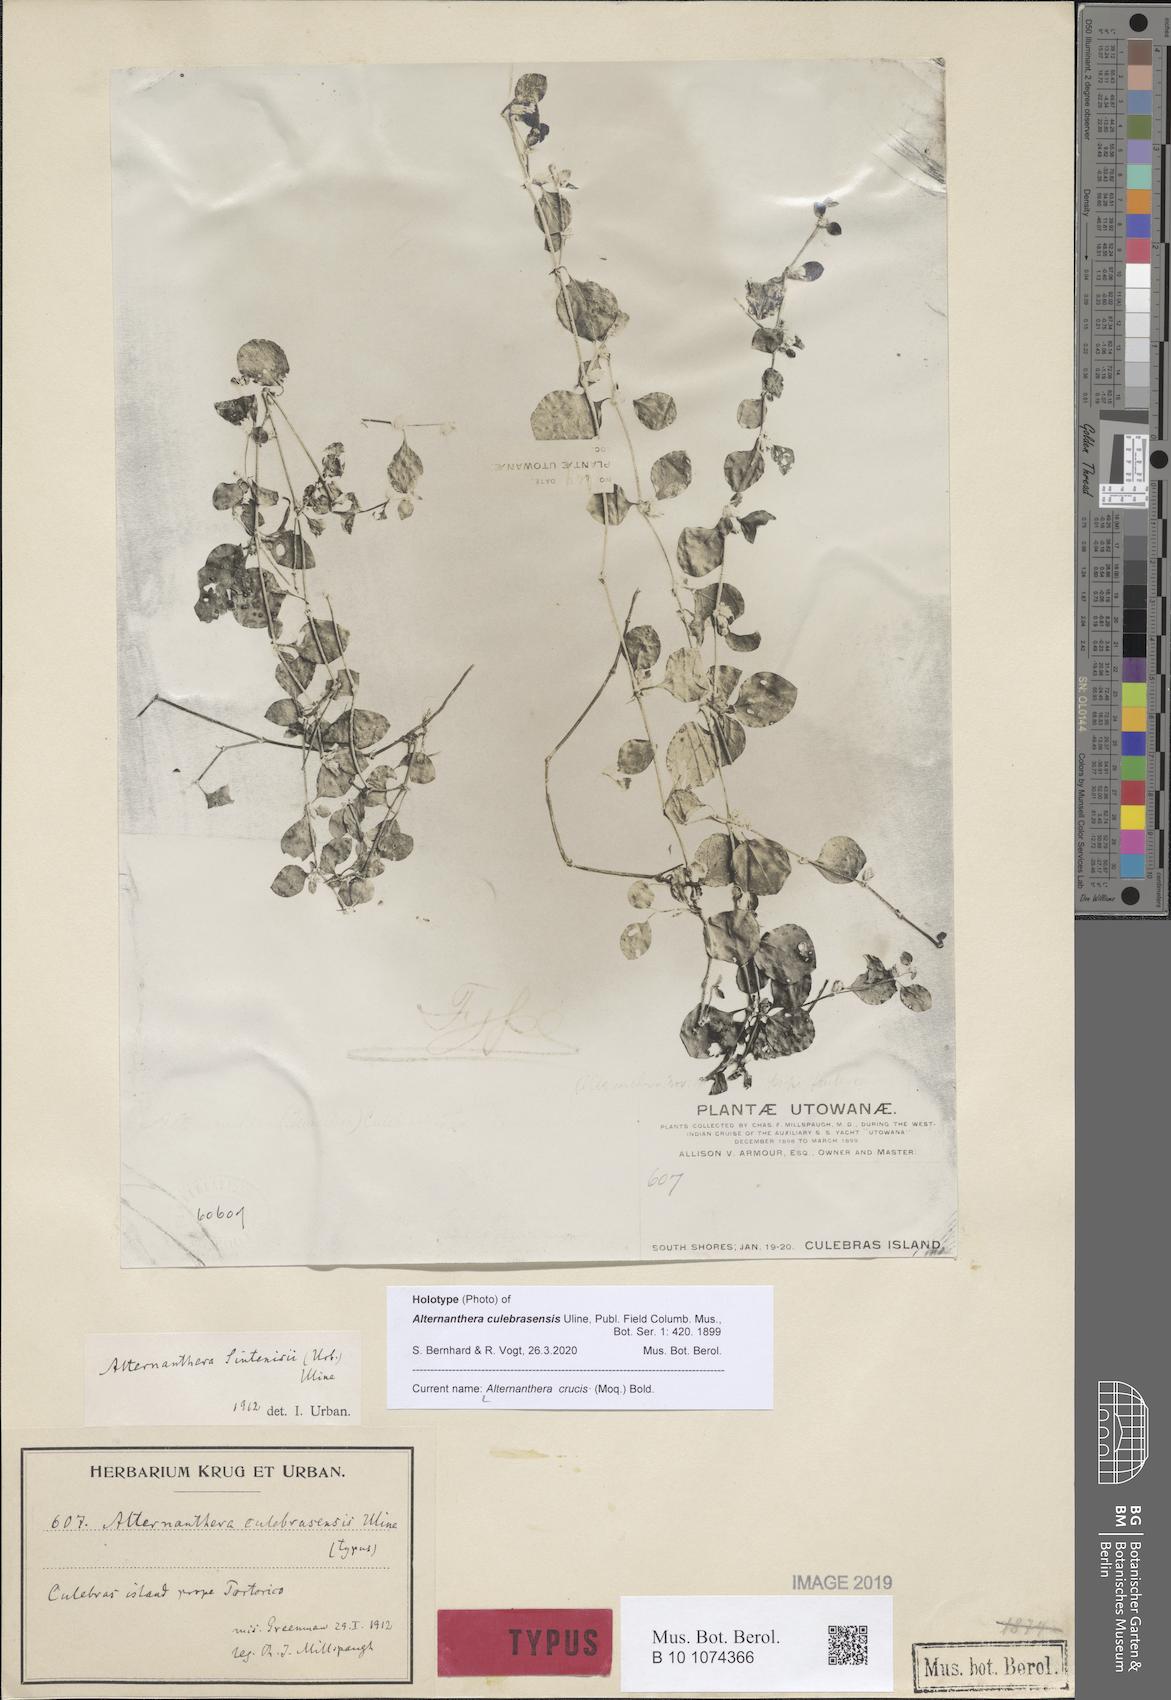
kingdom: Plantae
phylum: Tracheophyta
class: Magnoliopsida
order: Caryophyllales
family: Amaranthaceae
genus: Alternanthera
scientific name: Alternanthera crucis
